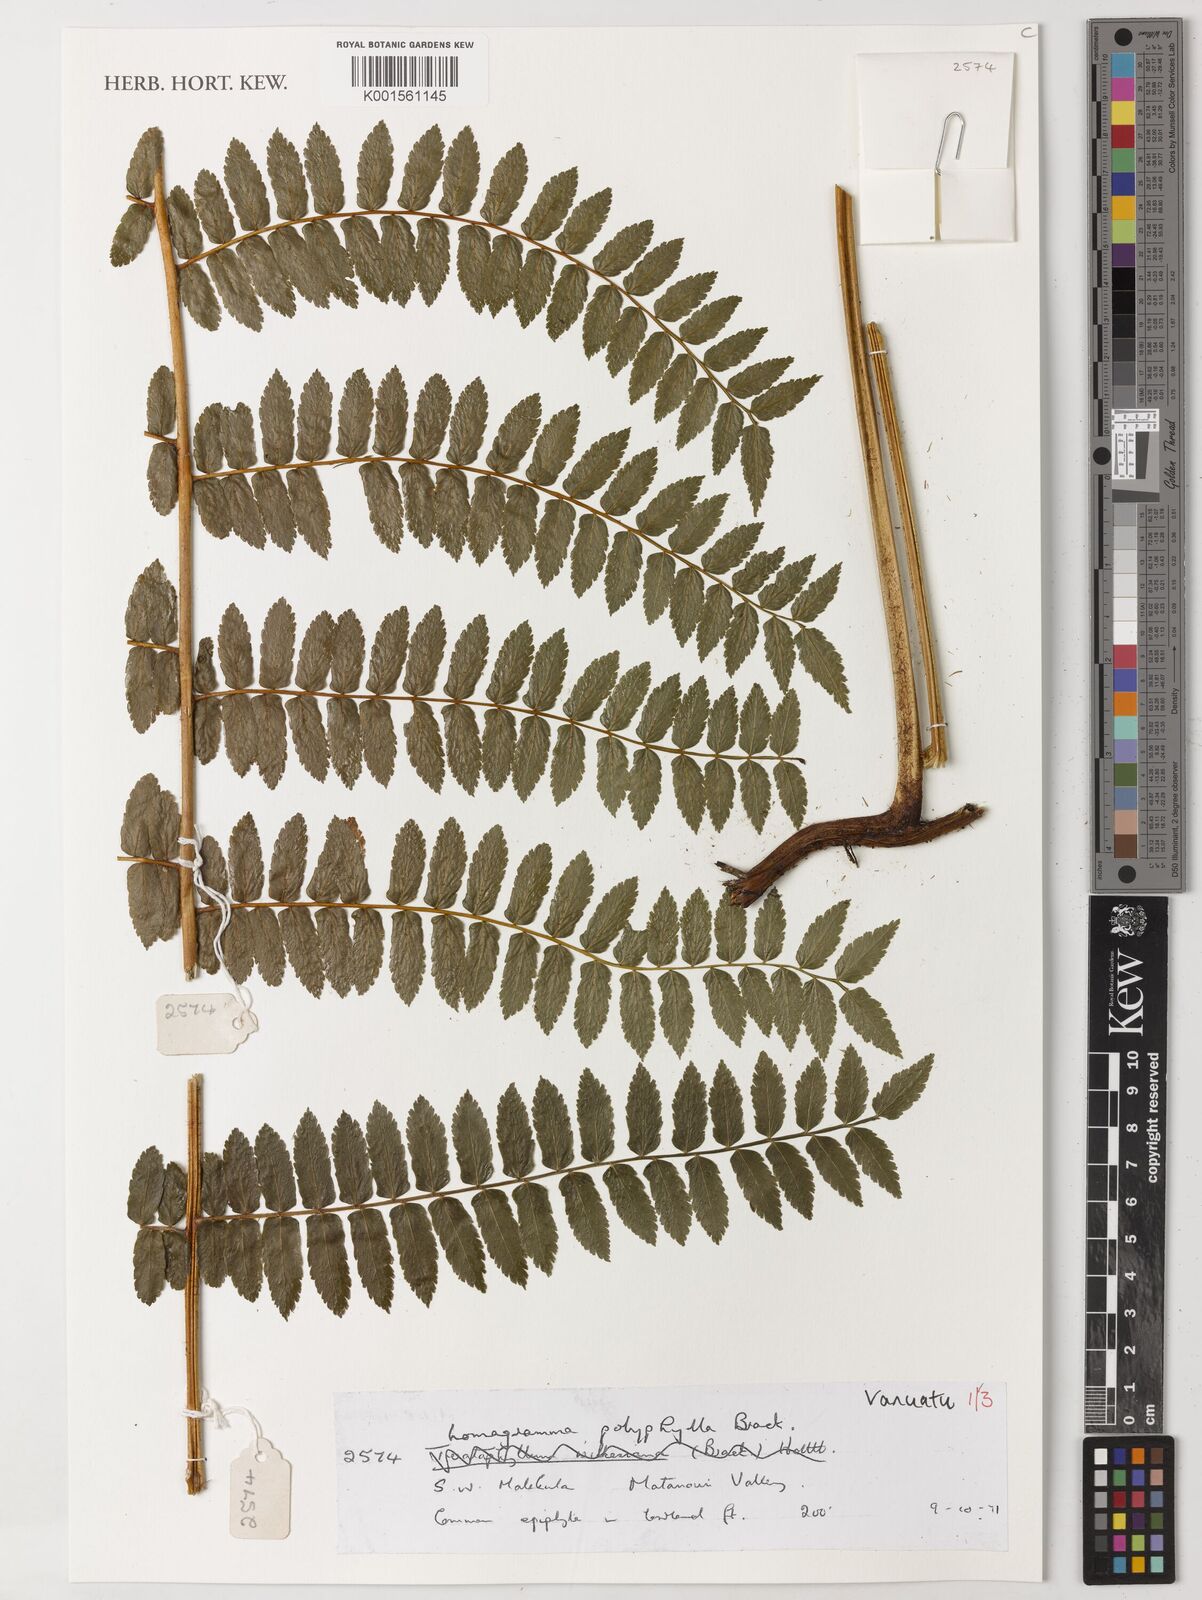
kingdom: Plantae
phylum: Tracheophyta
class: Polypodiopsida
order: Polypodiales
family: Dryopteridaceae
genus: Lomagramma
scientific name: Lomagramma polyphylla
